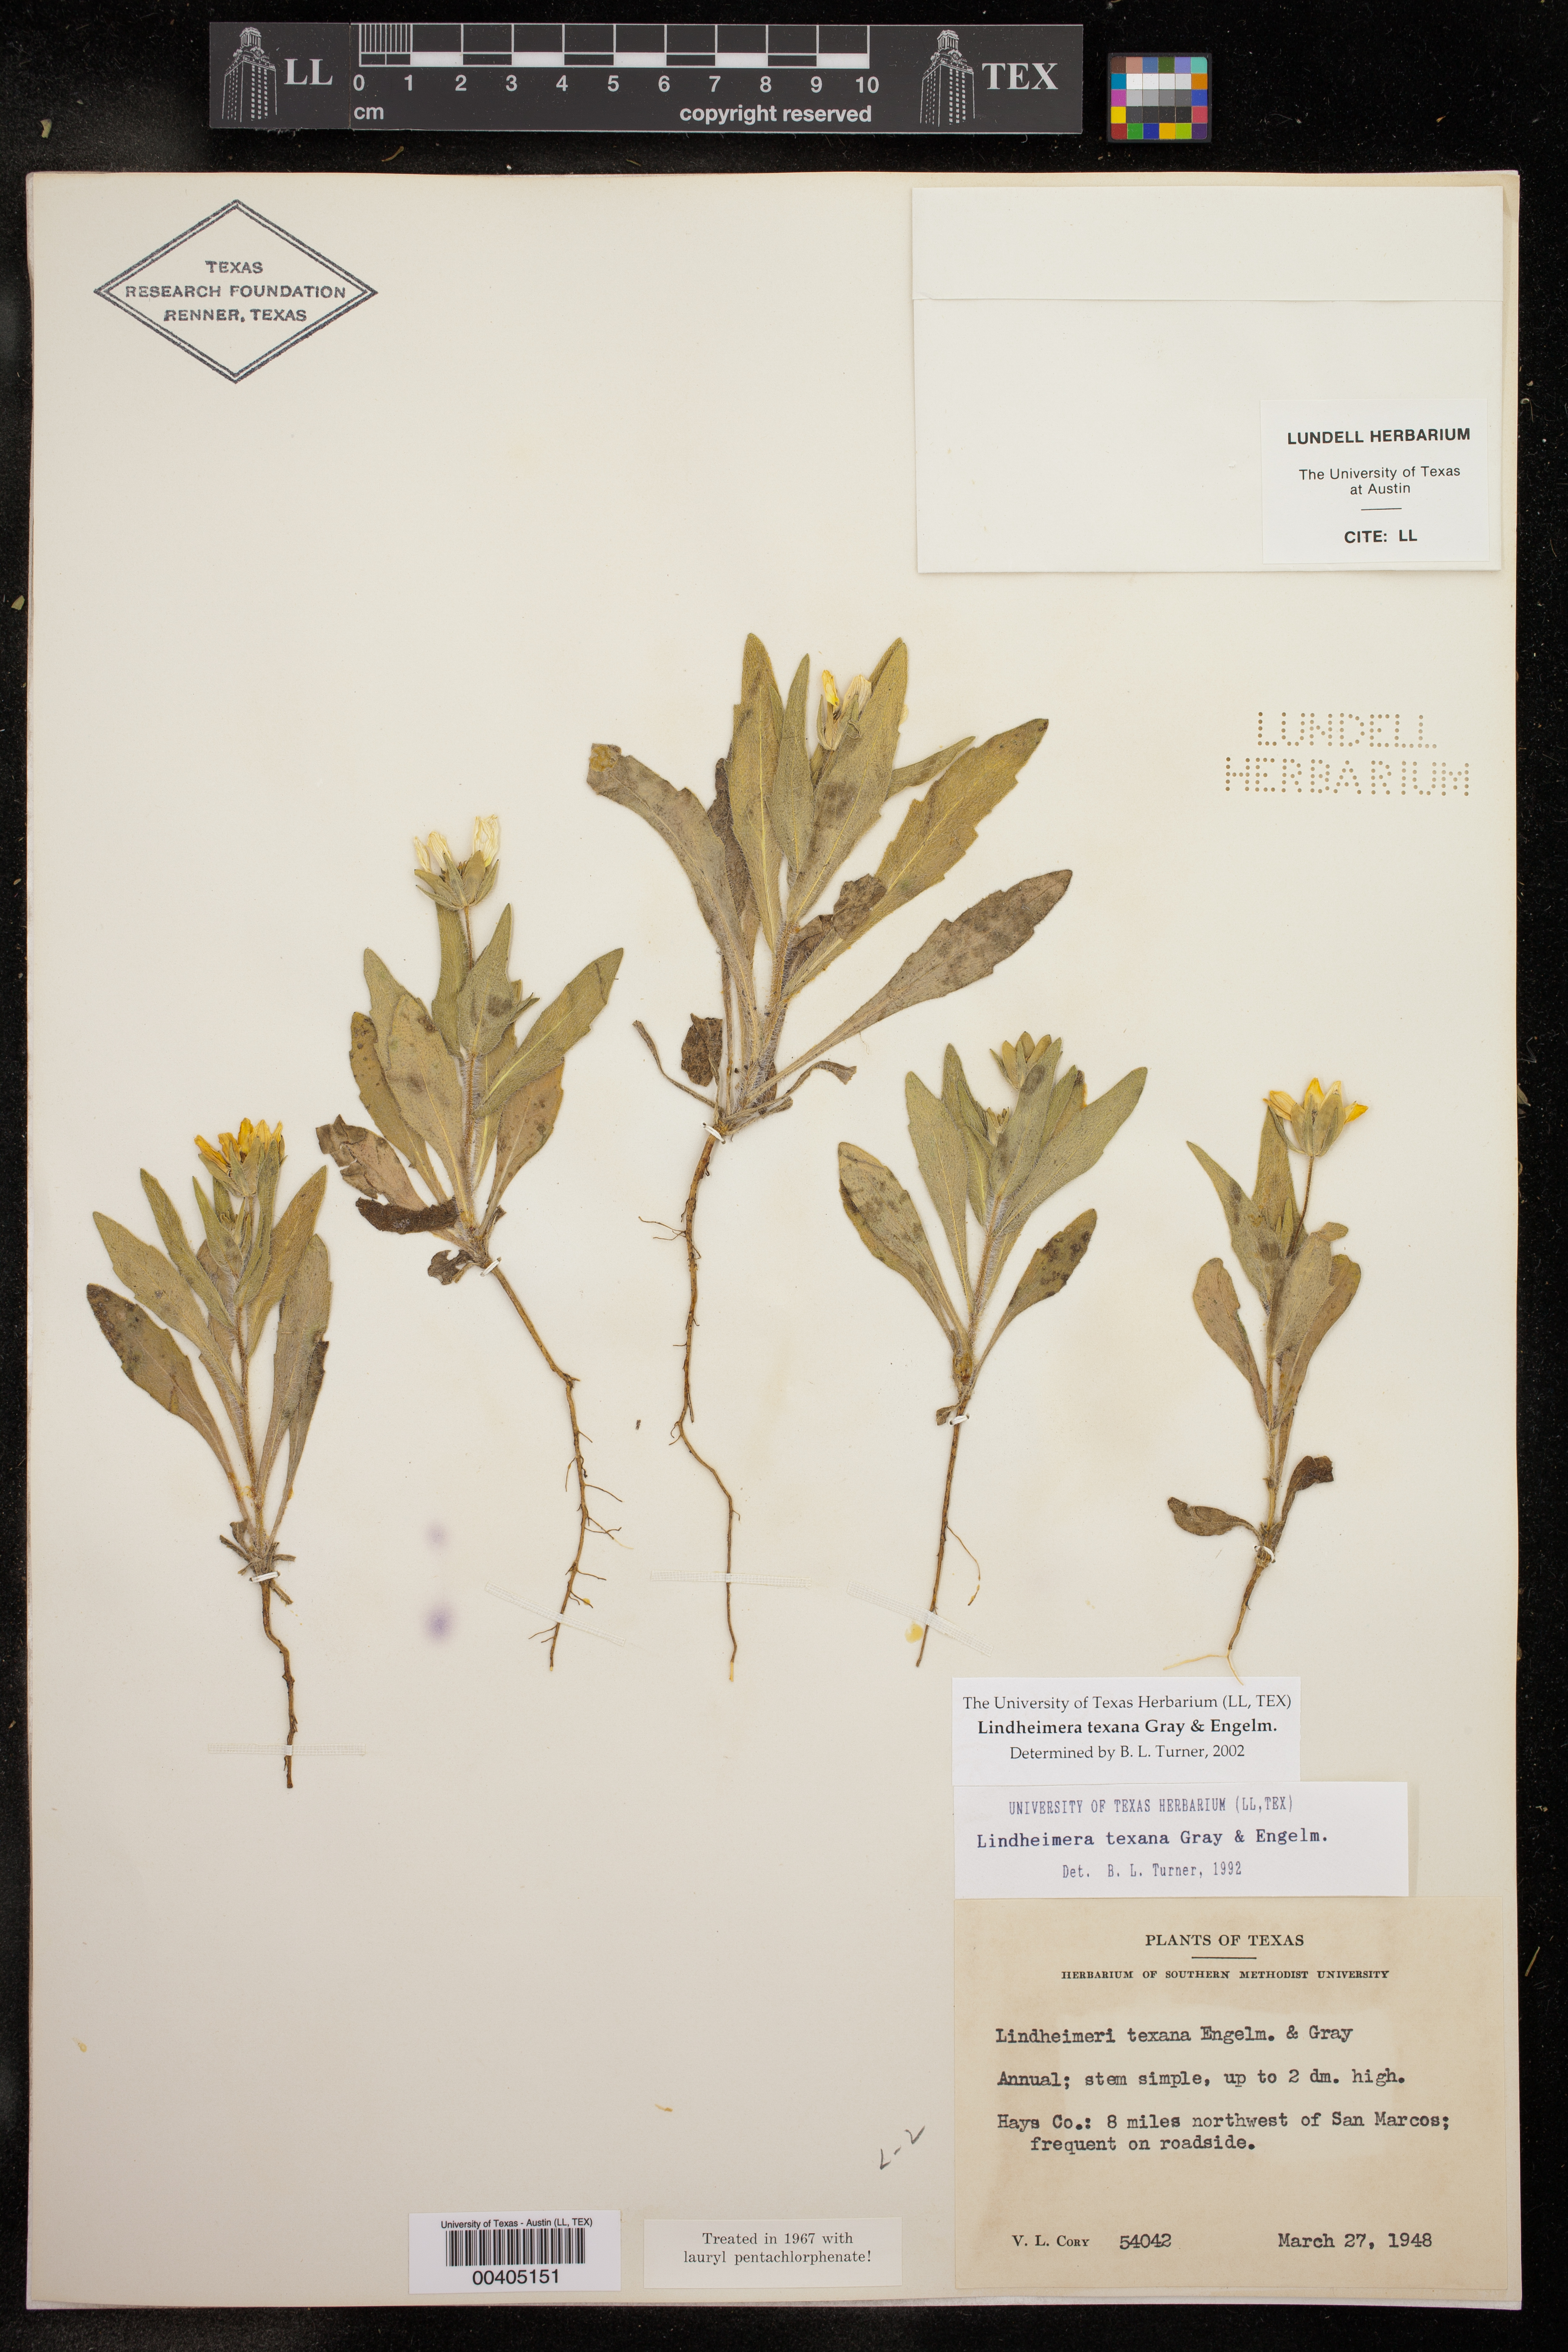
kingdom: Plantae
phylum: Tracheophyta
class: Magnoliopsida
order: Asterales
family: Asteraceae
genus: Lindheimera
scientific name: Lindheimera texana
